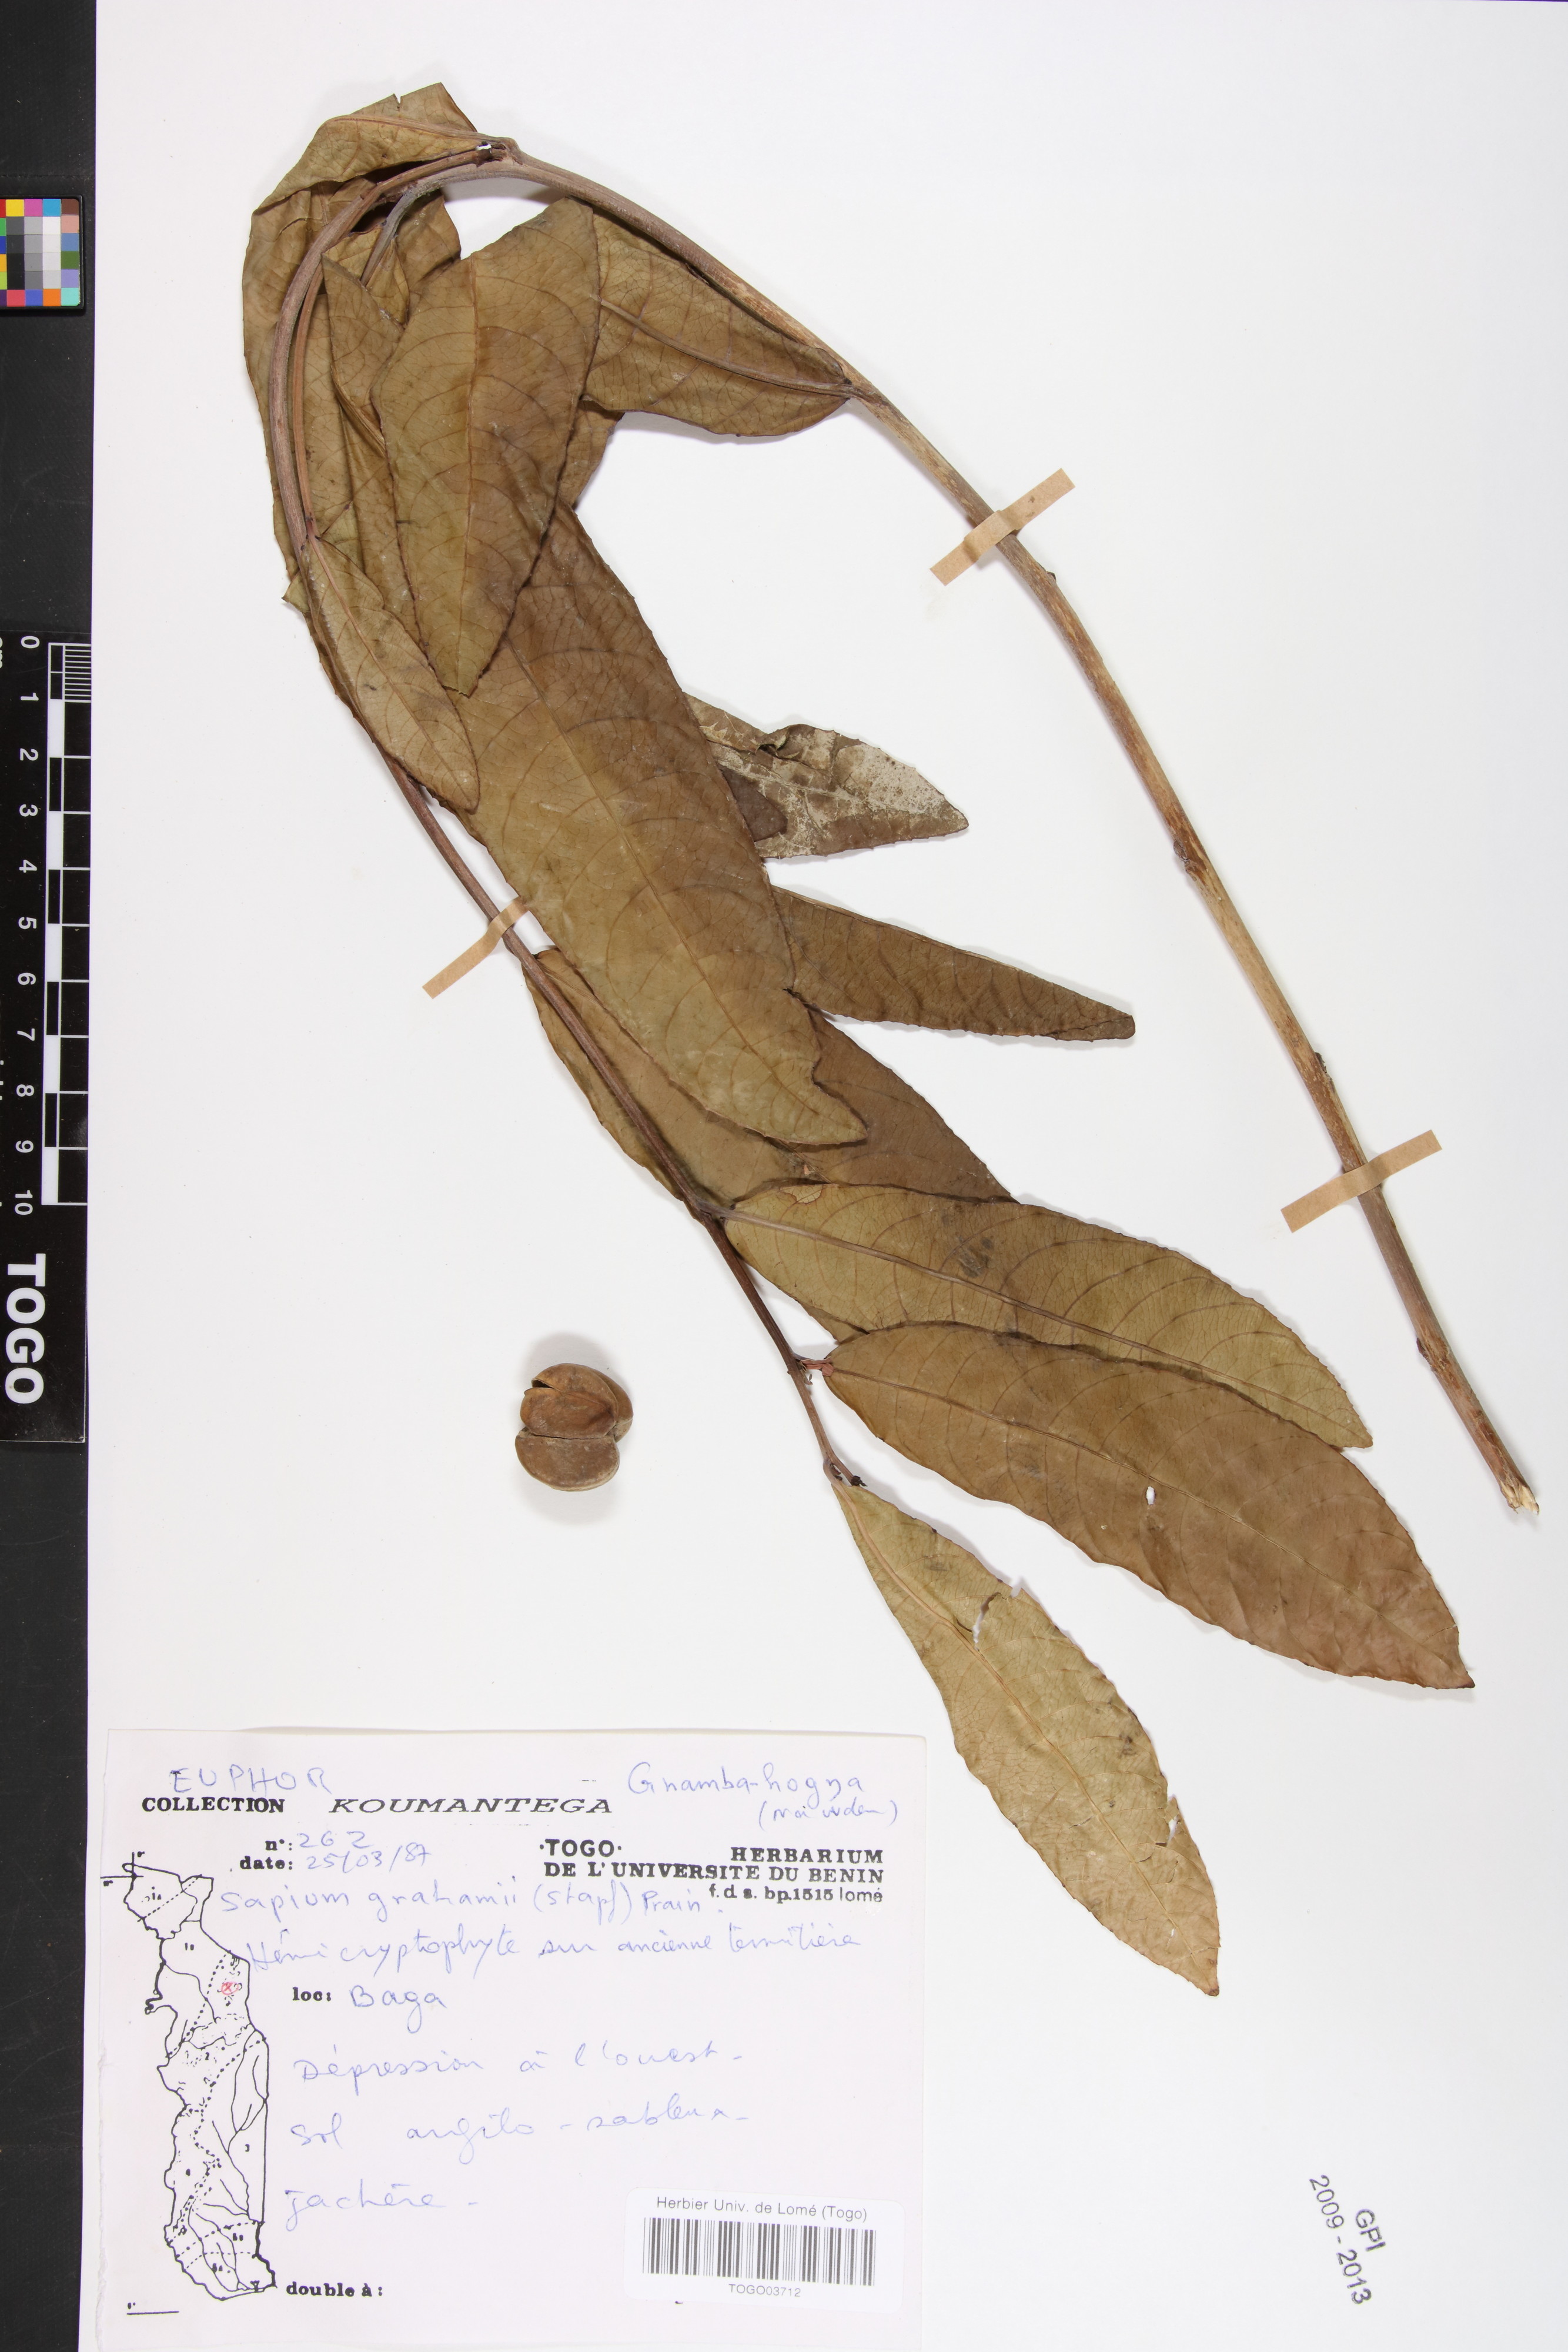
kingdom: Plantae
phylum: Tracheophyta
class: Magnoliopsida
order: Malpighiales
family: Euphorbiaceae
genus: Excoecaria
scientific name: Excoecaria grahamii
